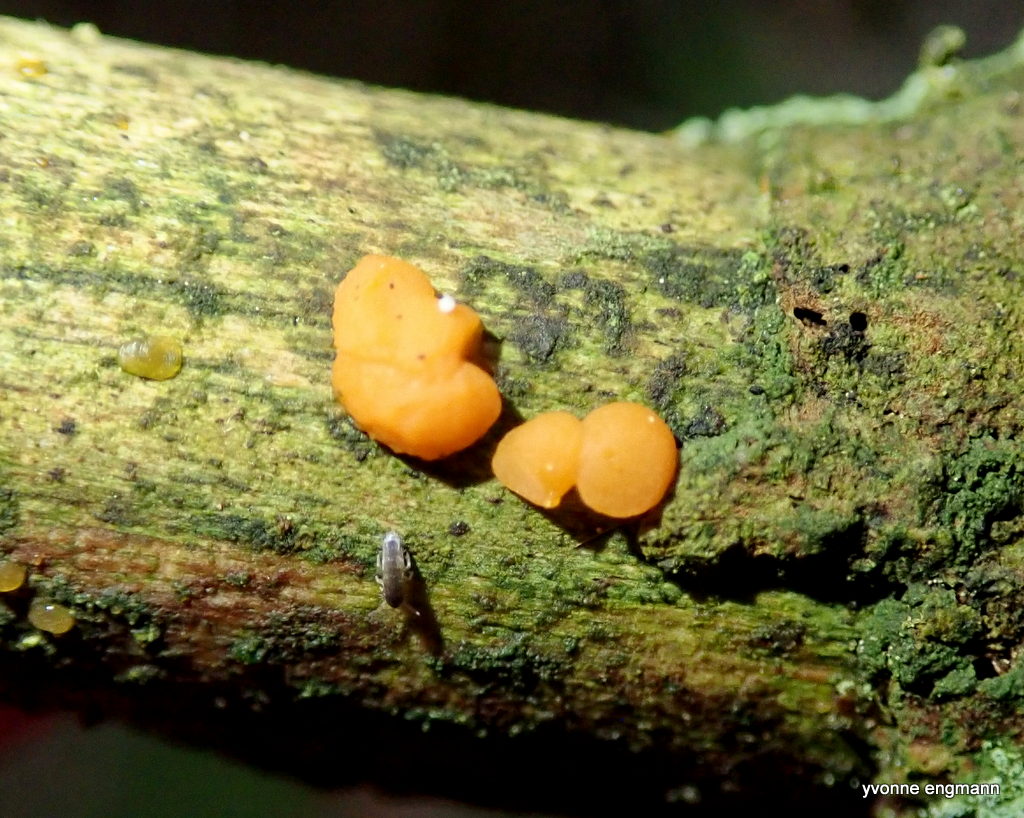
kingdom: Fungi
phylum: Basidiomycota
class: Dacrymycetes
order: Dacrymycetales
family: Dacrymycetaceae
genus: Dacrymyces
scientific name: Dacrymyces stillatus
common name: almindelig tåresvamp
